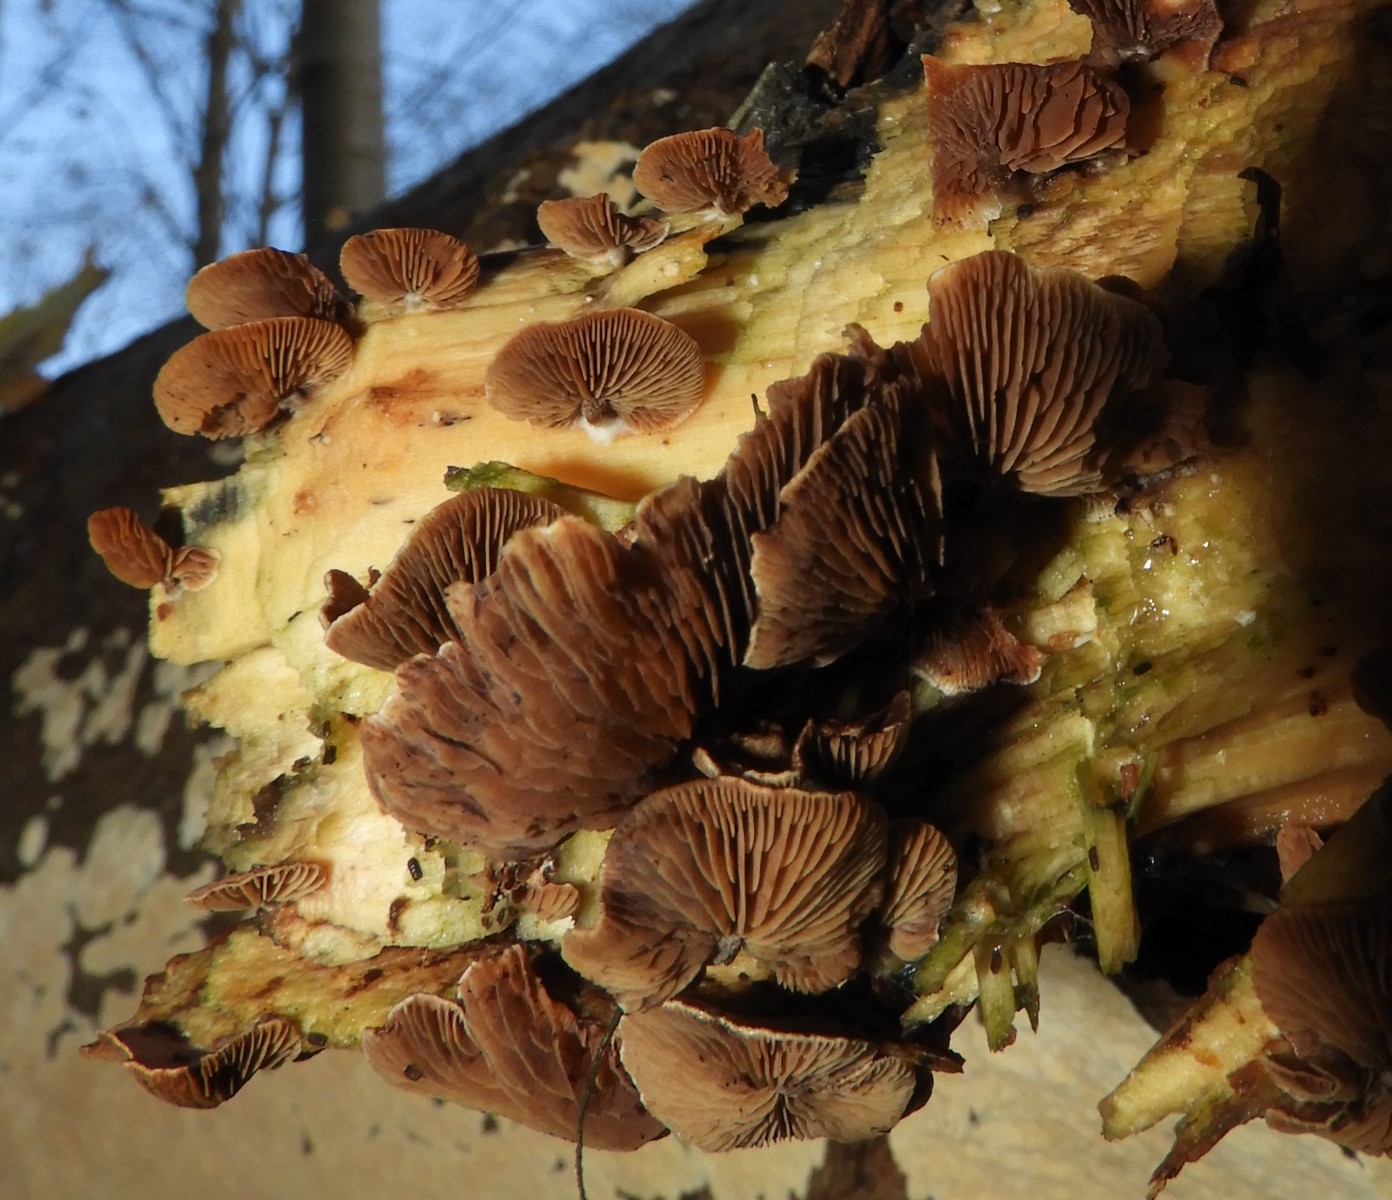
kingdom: Fungi
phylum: Basidiomycota
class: Agaricomycetes
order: Agaricales
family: Strophariaceae
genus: Deconica
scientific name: Deconica horizontalis
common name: ved-stråhat
